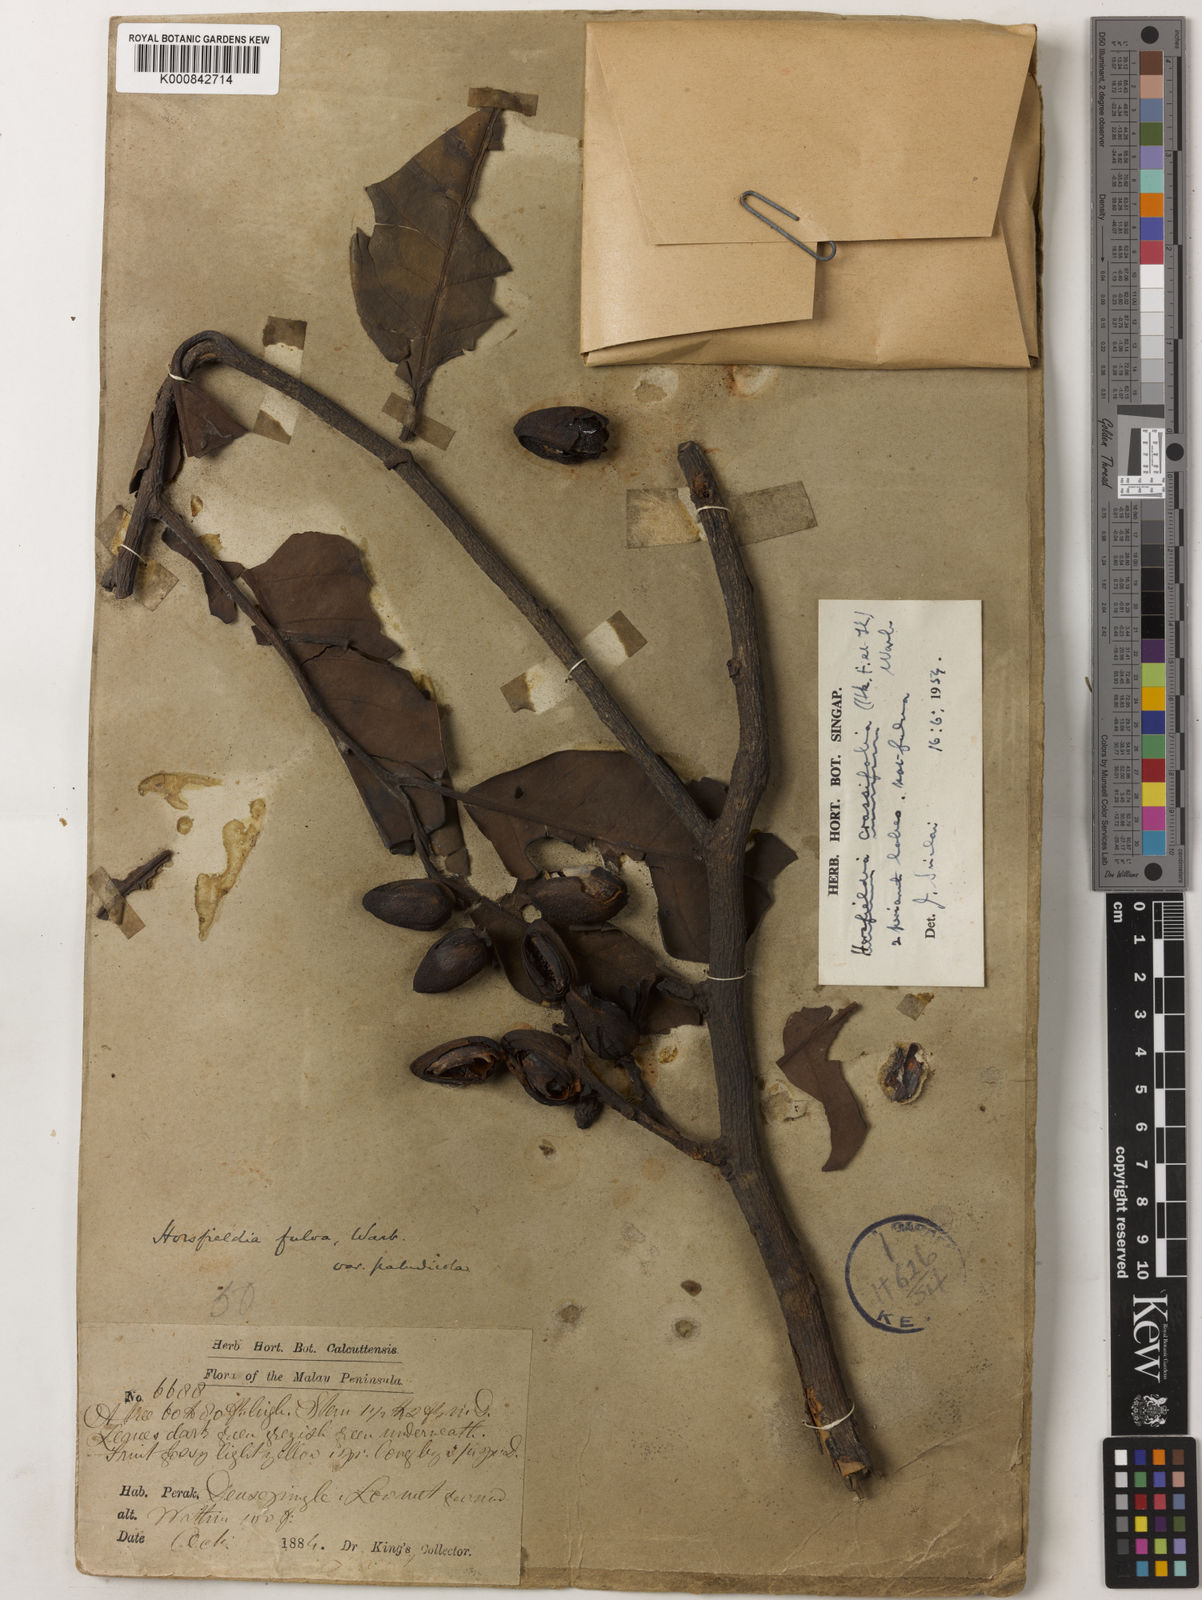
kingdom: Plantae
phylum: Tracheophyta
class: Magnoliopsida
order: Magnoliales
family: Myristicaceae
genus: Horsfieldia
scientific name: Horsfieldia crassifolia
